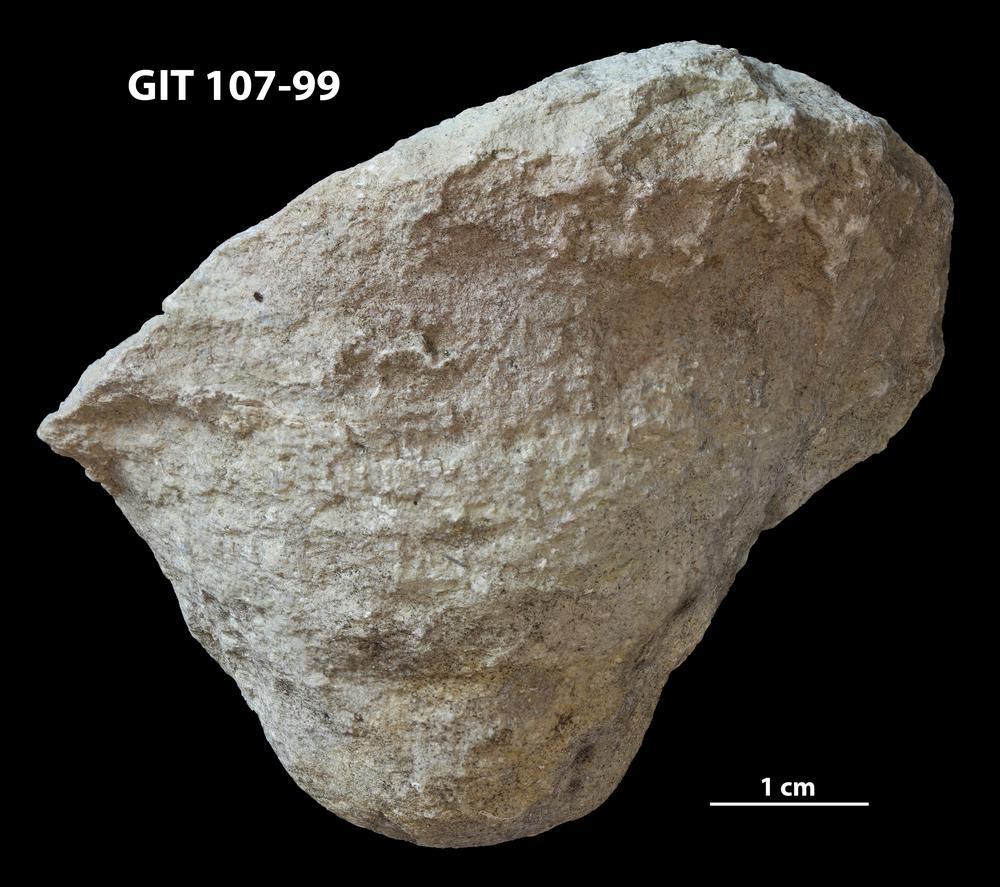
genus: Conichnus
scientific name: Conichnus
